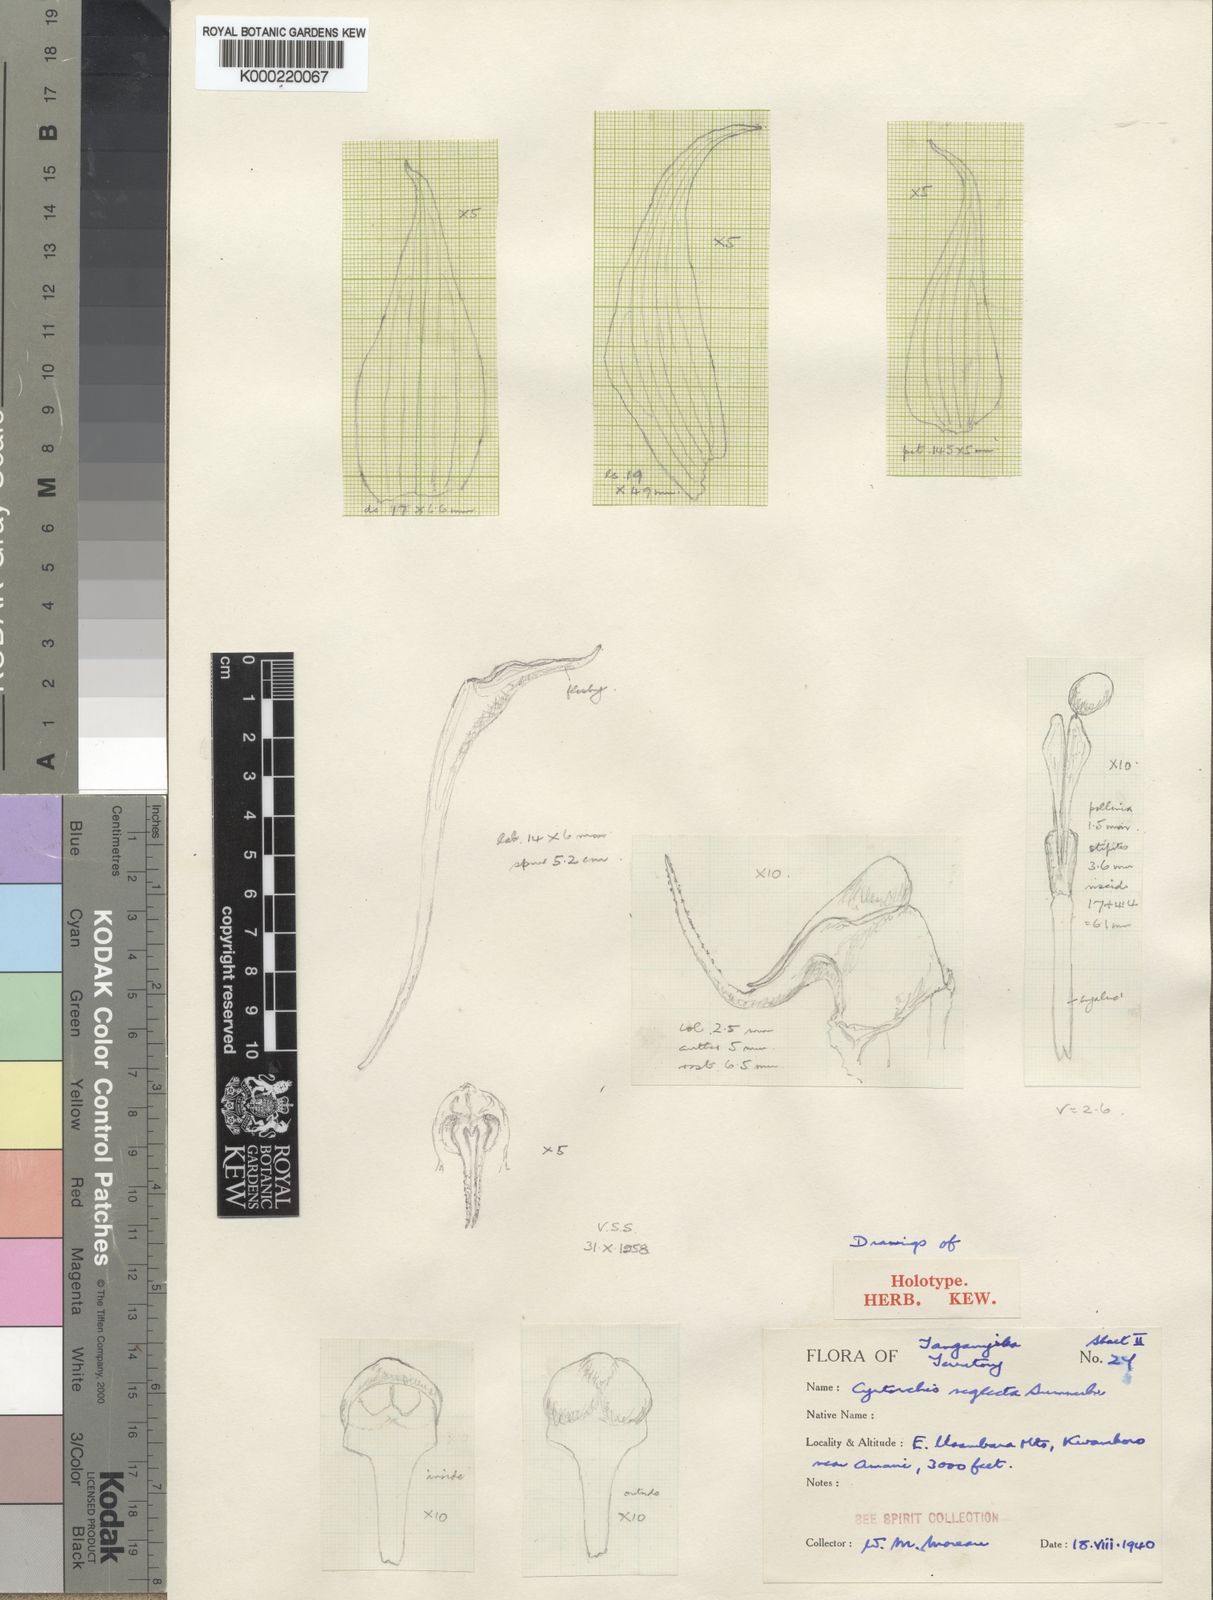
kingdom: Plantae
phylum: Tracheophyta
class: Liliopsida
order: Asparagales
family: Orchidaceae
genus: Cyrtorchis
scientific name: Cyrtorchis neglecta
